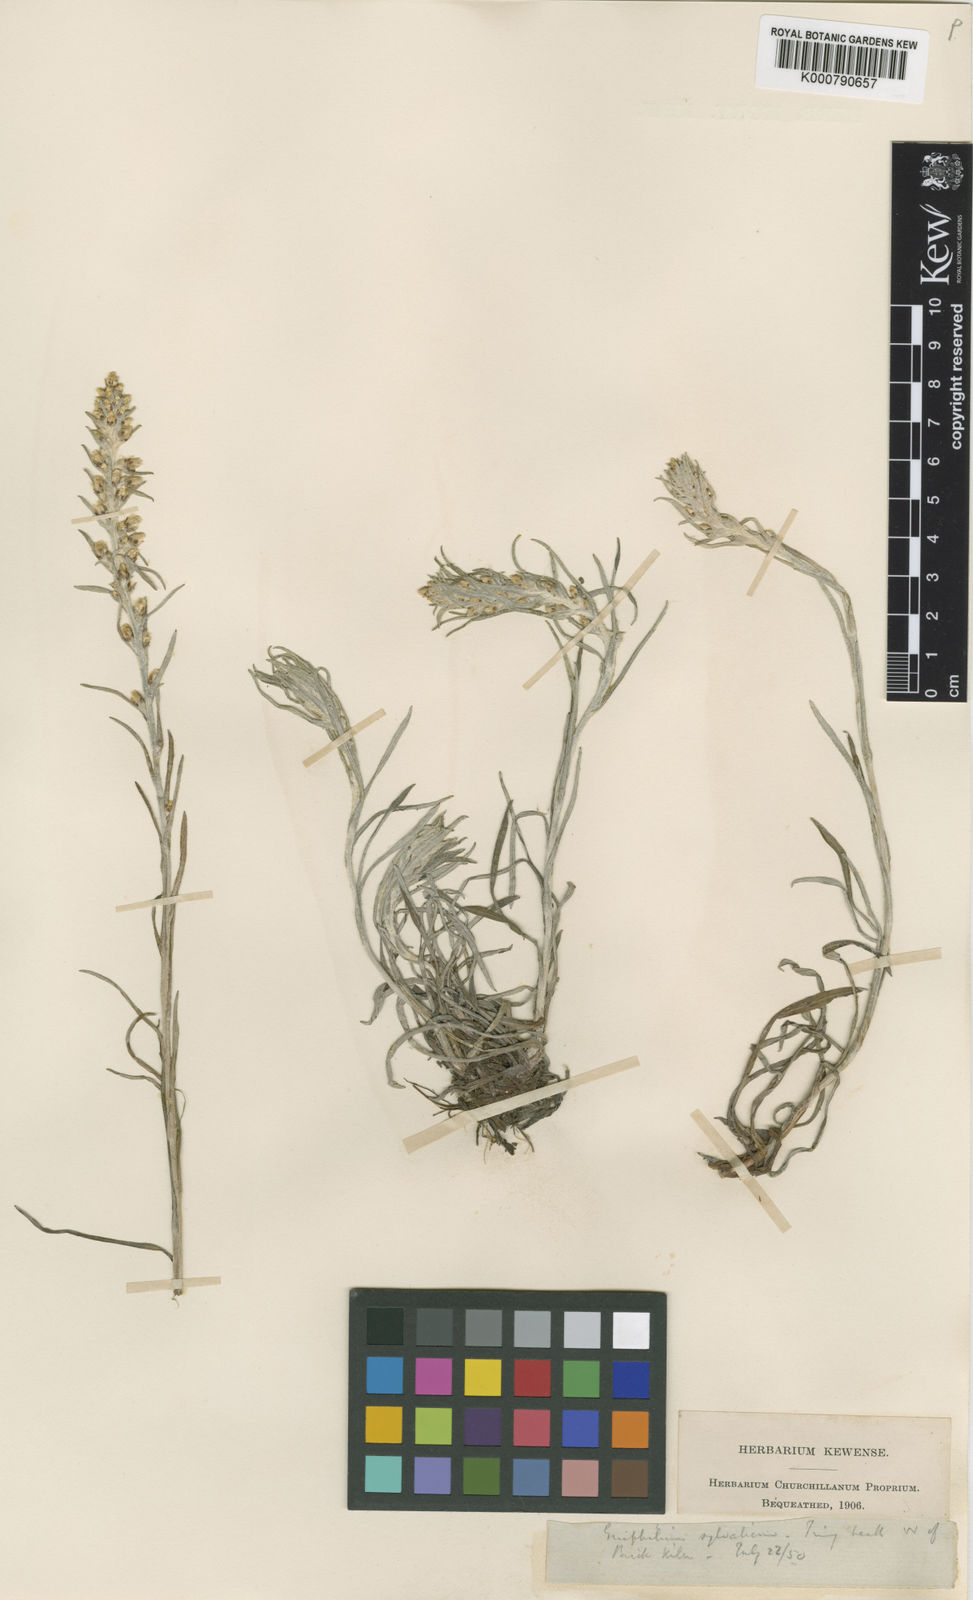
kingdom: Plantae
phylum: Tracheophyta
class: Magnoliopsida
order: Asterales
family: Asteraceae
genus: Omalotheca
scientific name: Omalotheca sylvatica
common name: Heath cudweed
